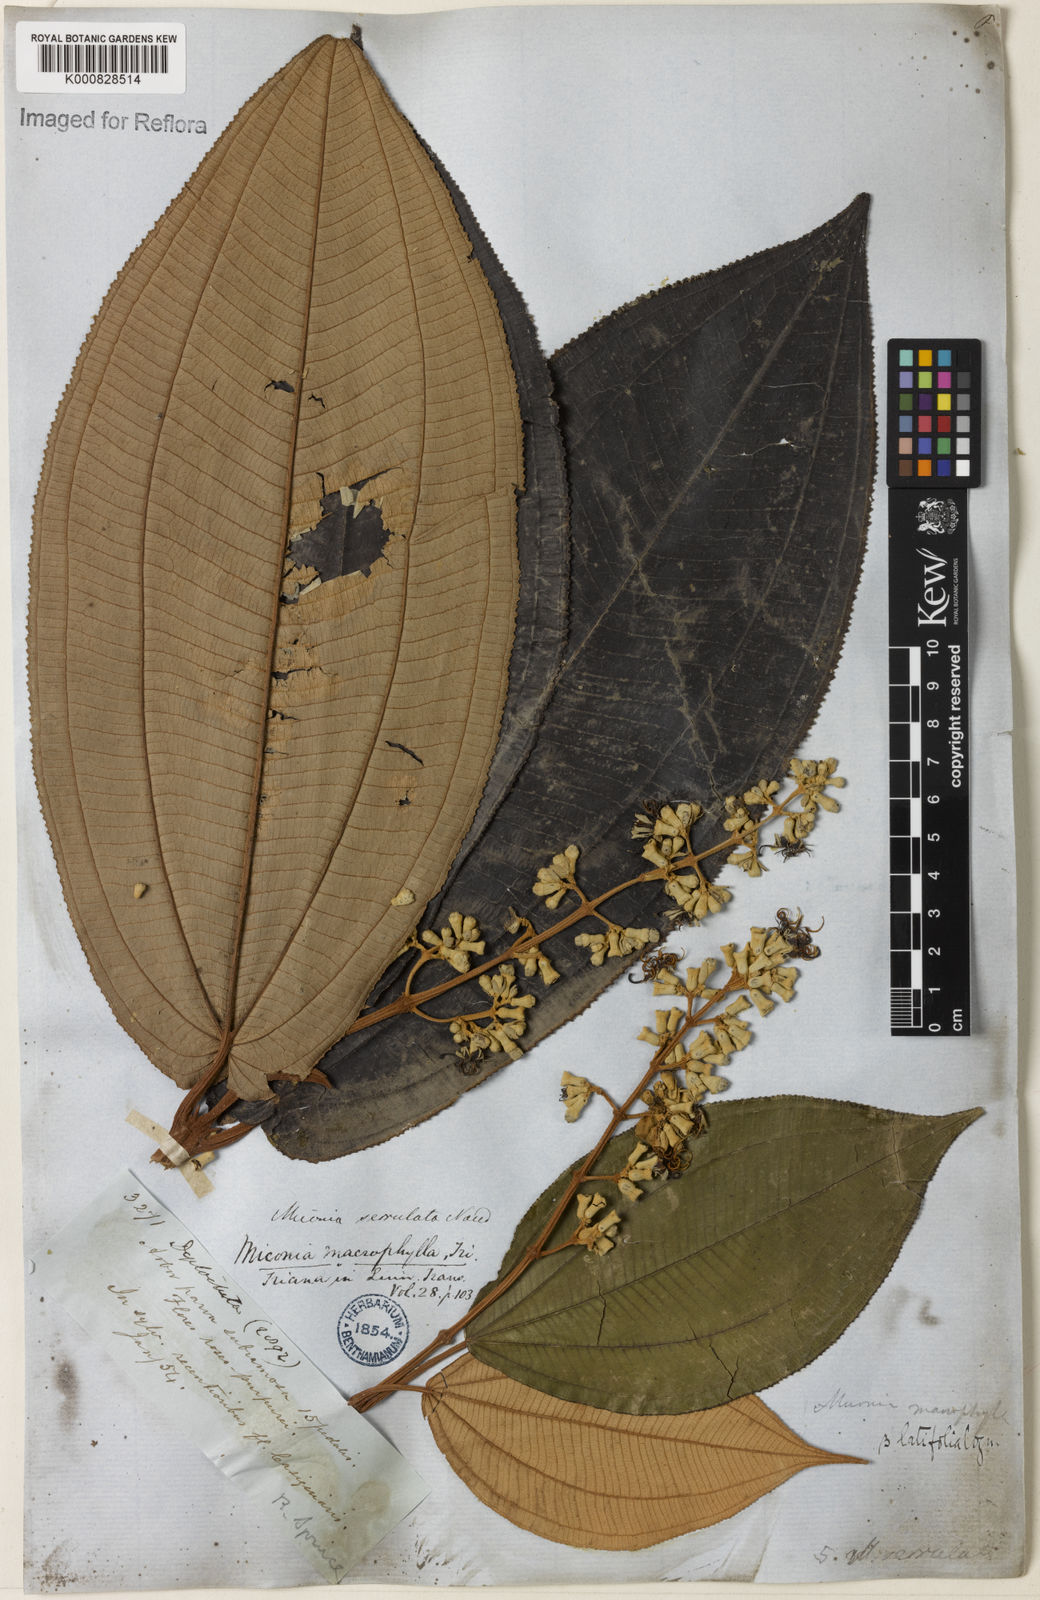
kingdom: Plantae
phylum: Tracheophyta
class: Magnoliopsida
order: Myrtales
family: Melastomataceae
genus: Miconia
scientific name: Miconia serrulata
